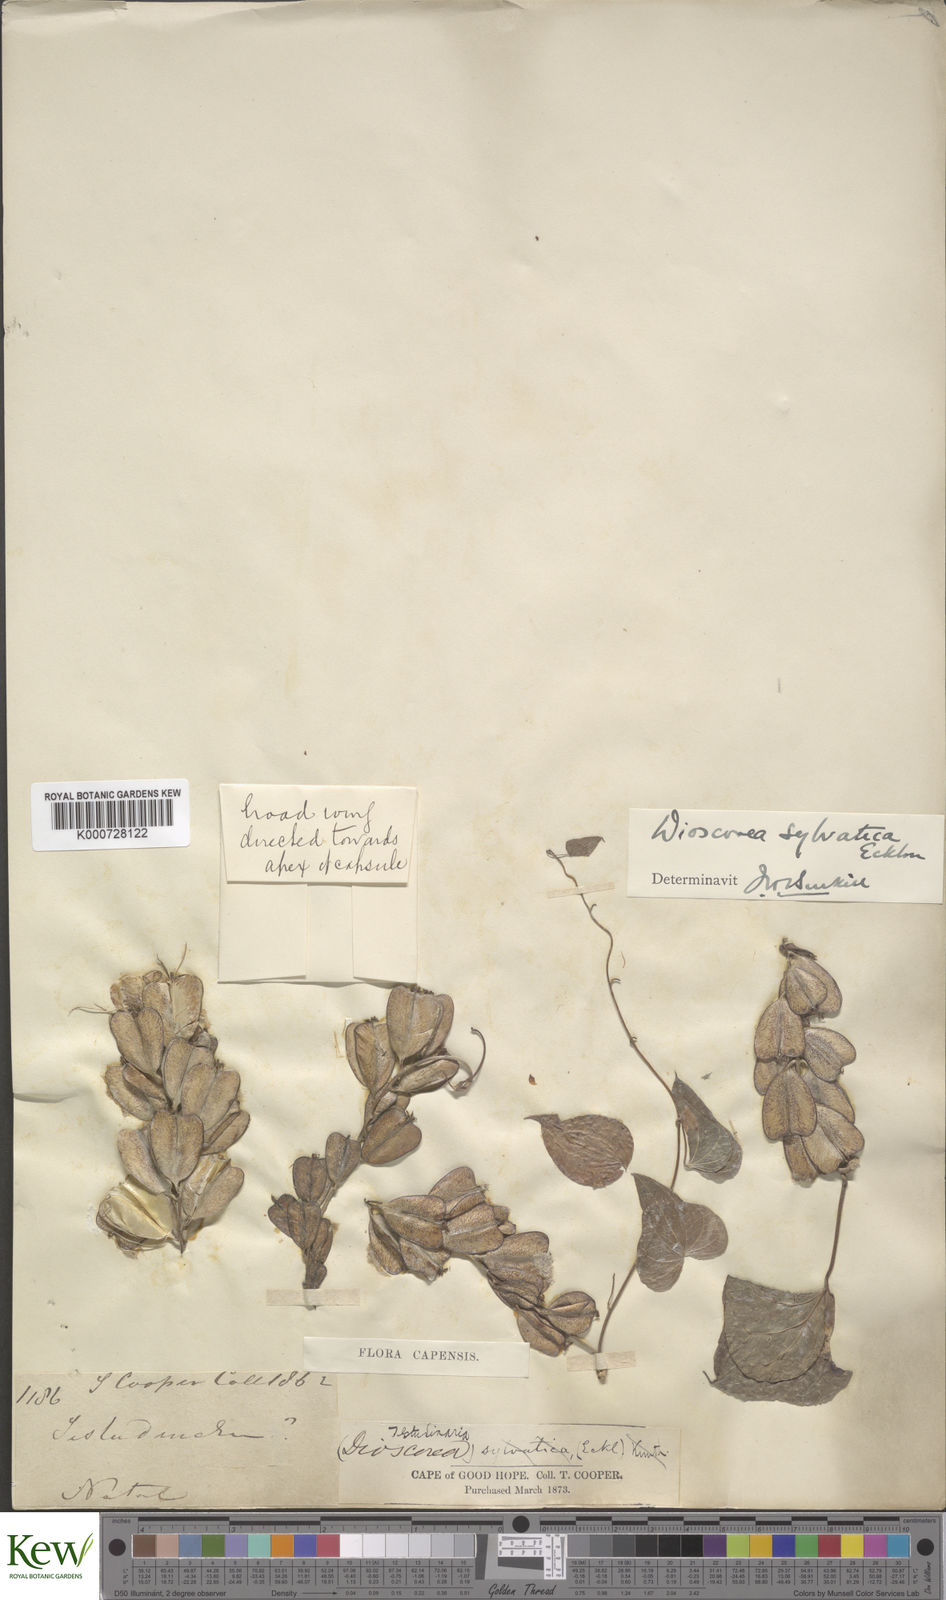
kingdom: Plantae
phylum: Tracheophyta
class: Liliopsida
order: Dioscoreales
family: Dioscoreaceae
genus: Dioscorea
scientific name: Dioscorea sylvatica
